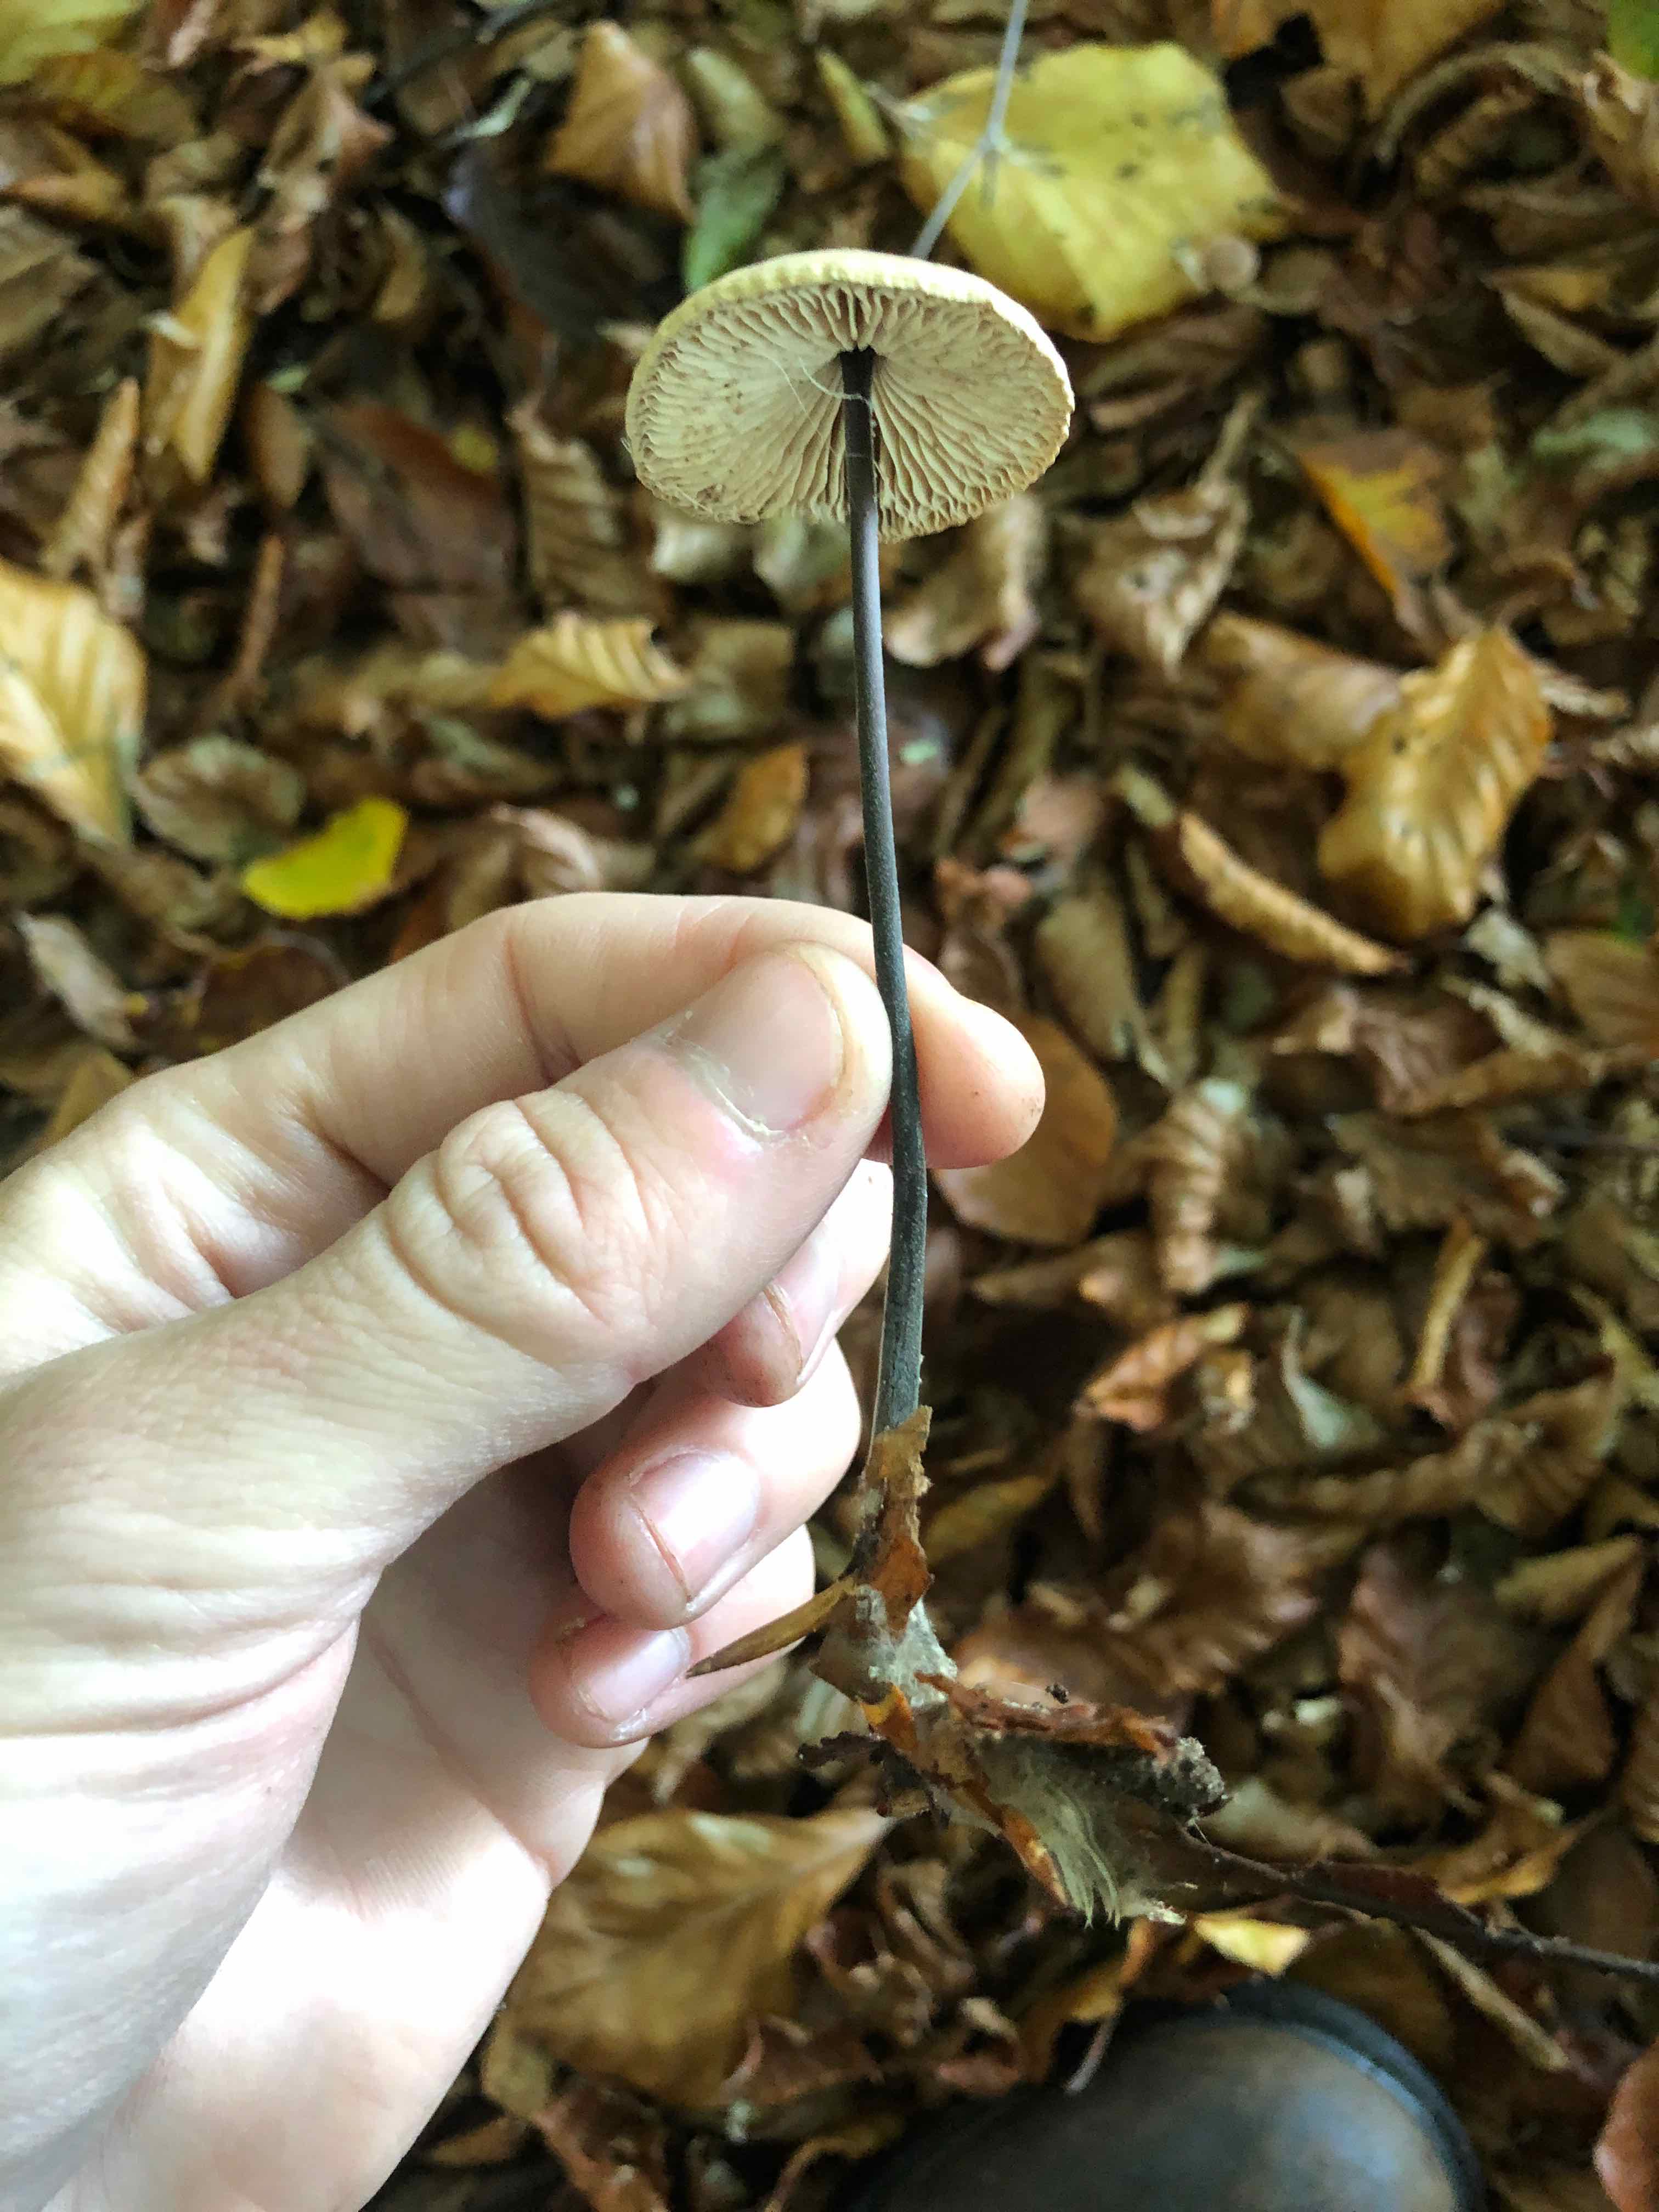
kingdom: Fungi
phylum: Basidiomycota
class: Agaricomycetes
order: Agaricales
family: Omphalotaceae
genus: Mycetinis
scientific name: Mycetinis alliaceus
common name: stor løghat
